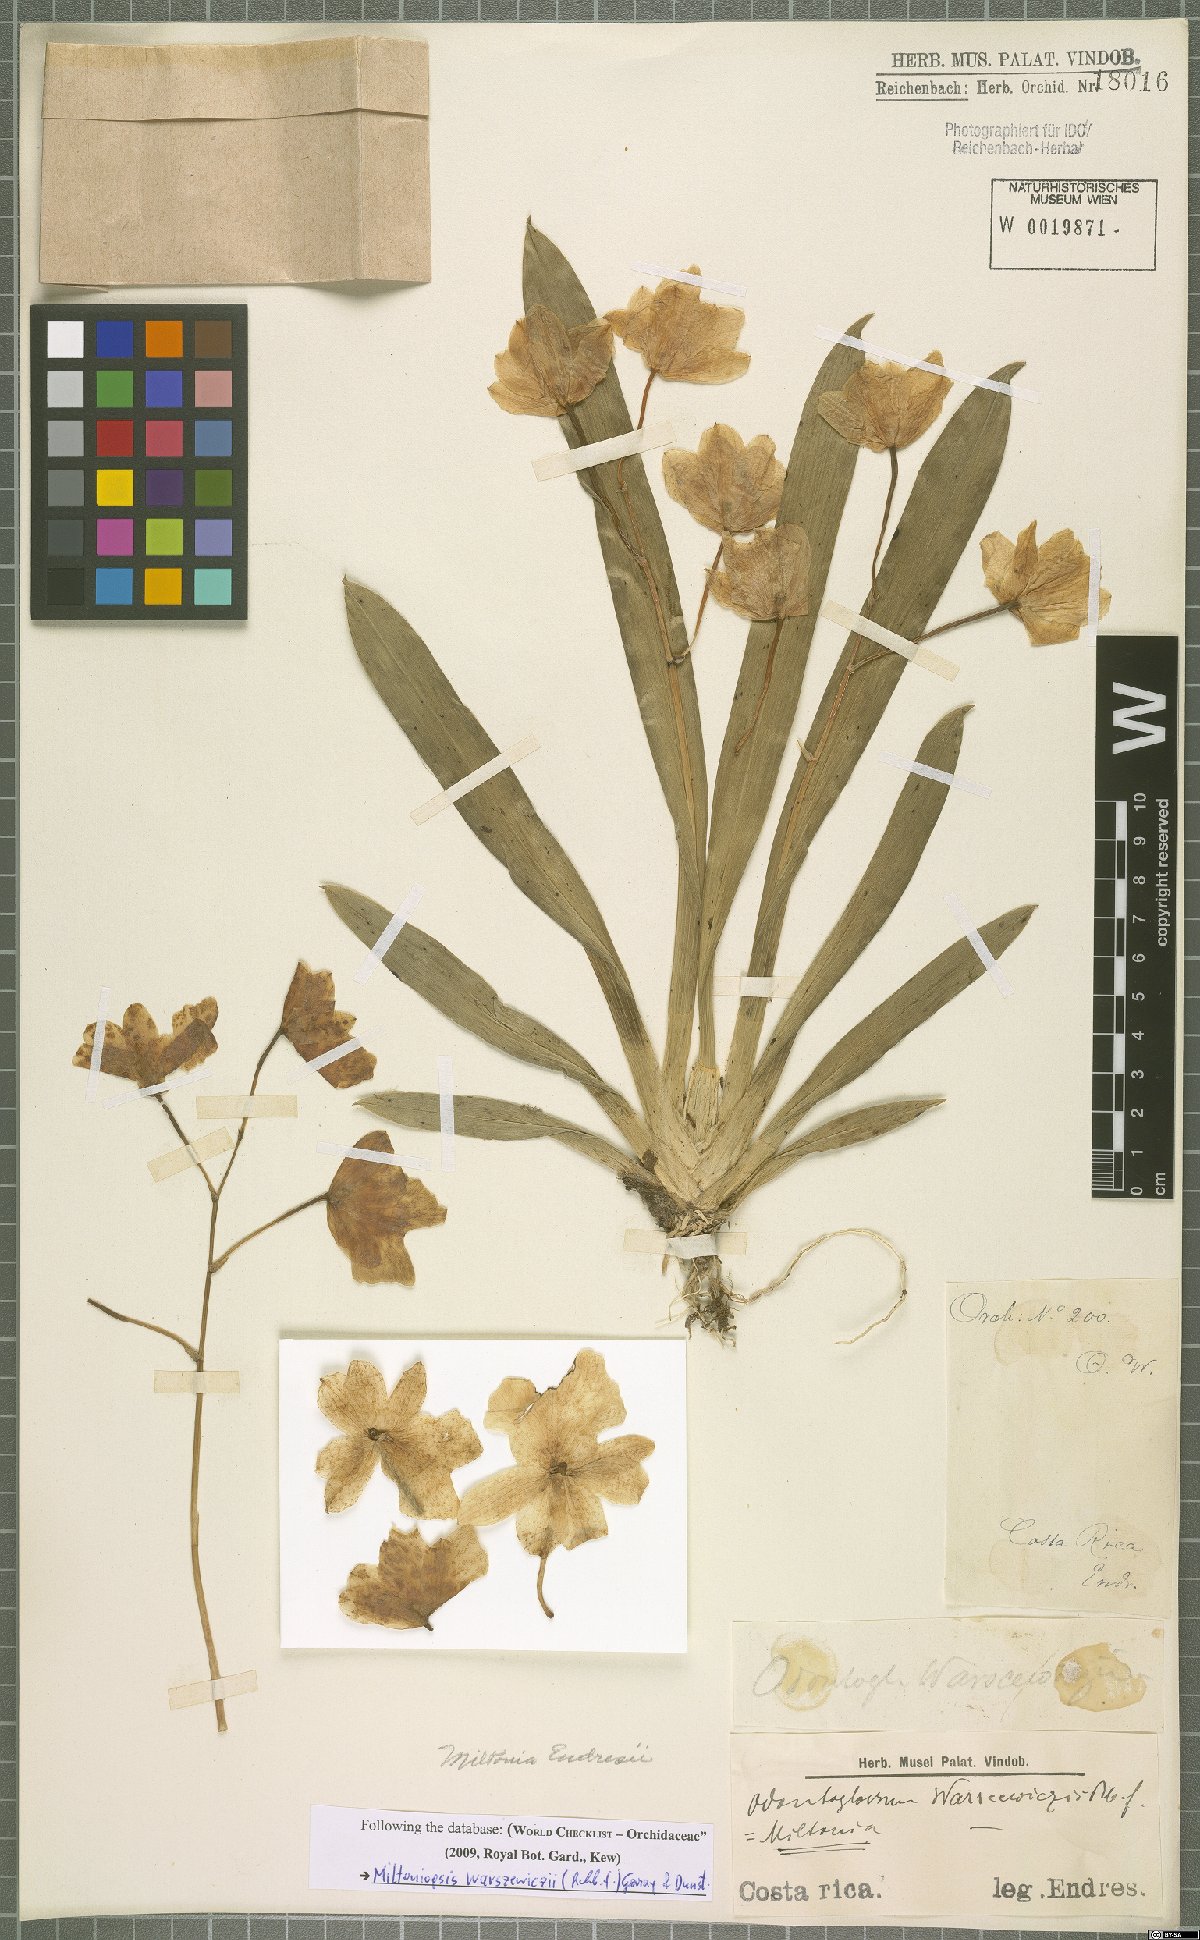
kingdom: Plantae
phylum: Tracheophyta
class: Liliopsida
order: Asparagales
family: Orchidaceae
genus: Miltoniopsis
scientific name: Miltoniopsis warszewiczii
